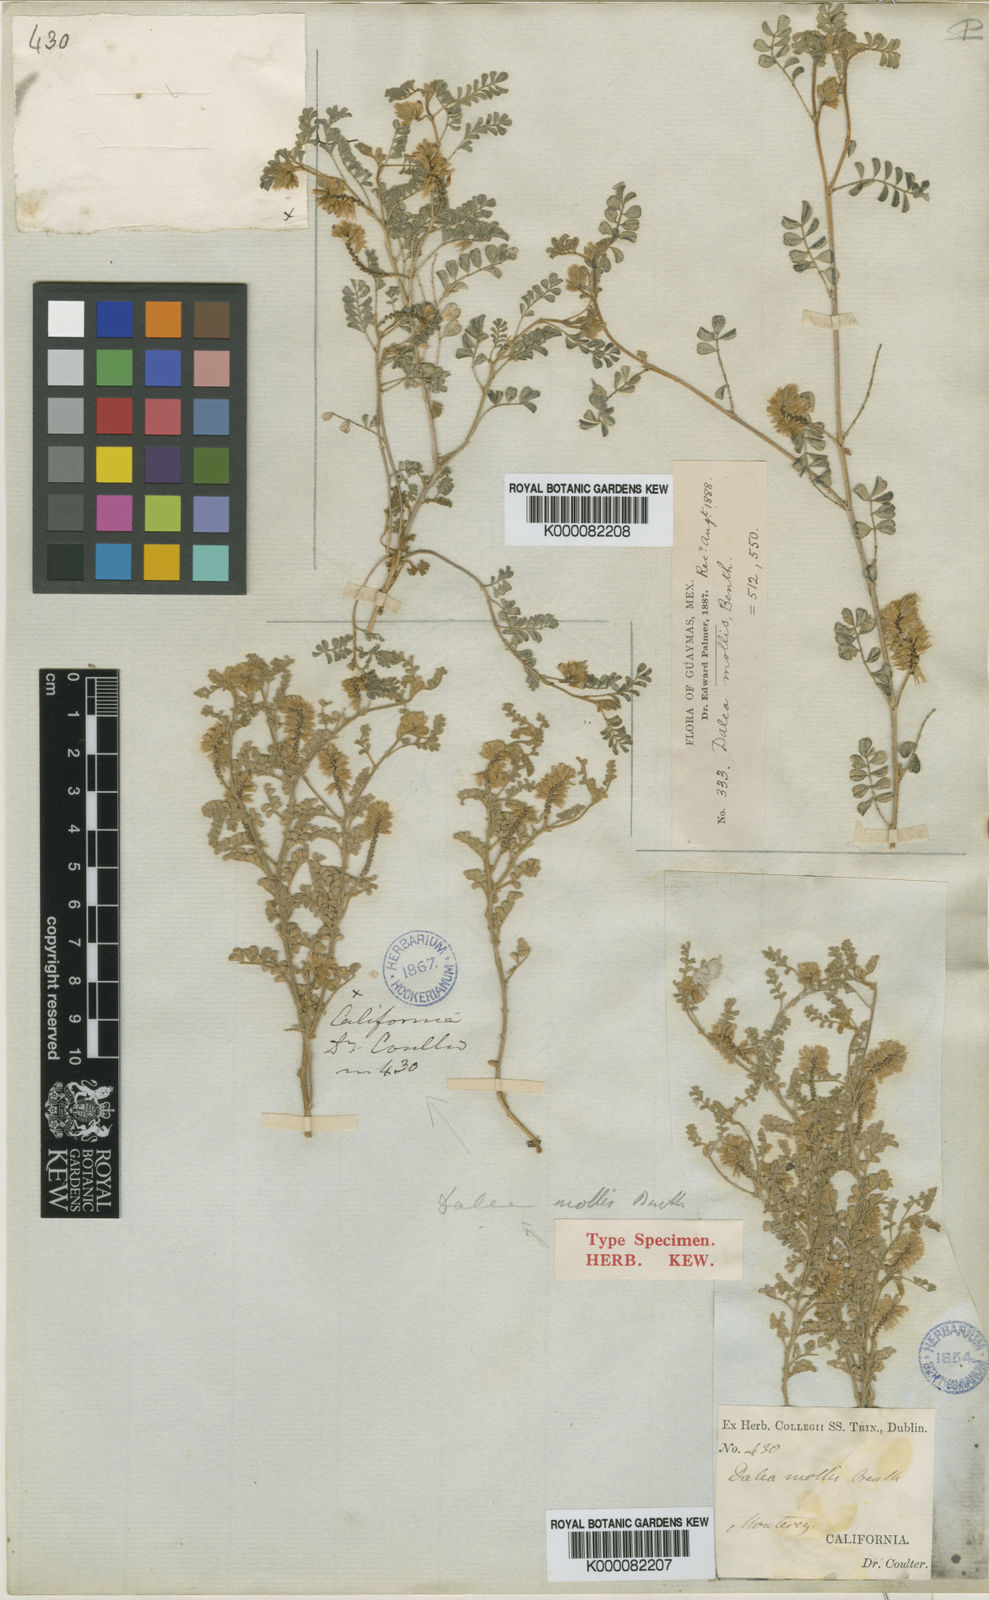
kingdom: Plantae
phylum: Tracheophyta
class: Magnoliopsida
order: Fabales
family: Fabaceae
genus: Dalea
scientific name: Dalea mollis
